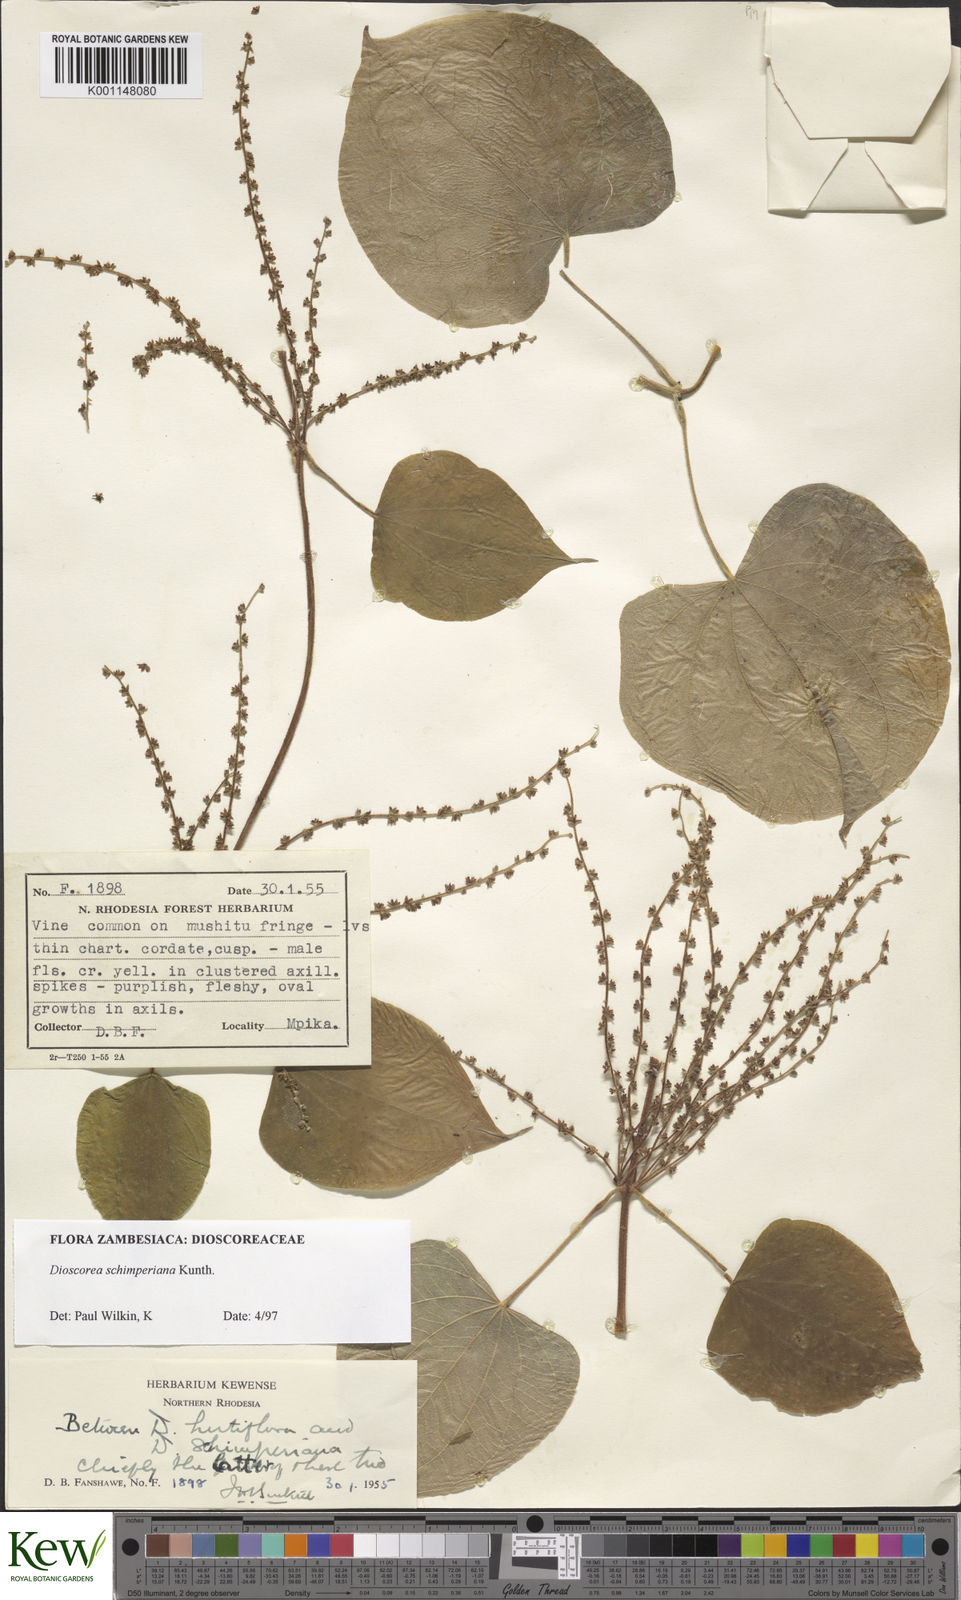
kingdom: Plantae
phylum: Tracheophyta
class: Liliopsida
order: Dioscoreales
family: Dioscoreaceae
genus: Dioscorea
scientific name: Dioscorea schimperiana
